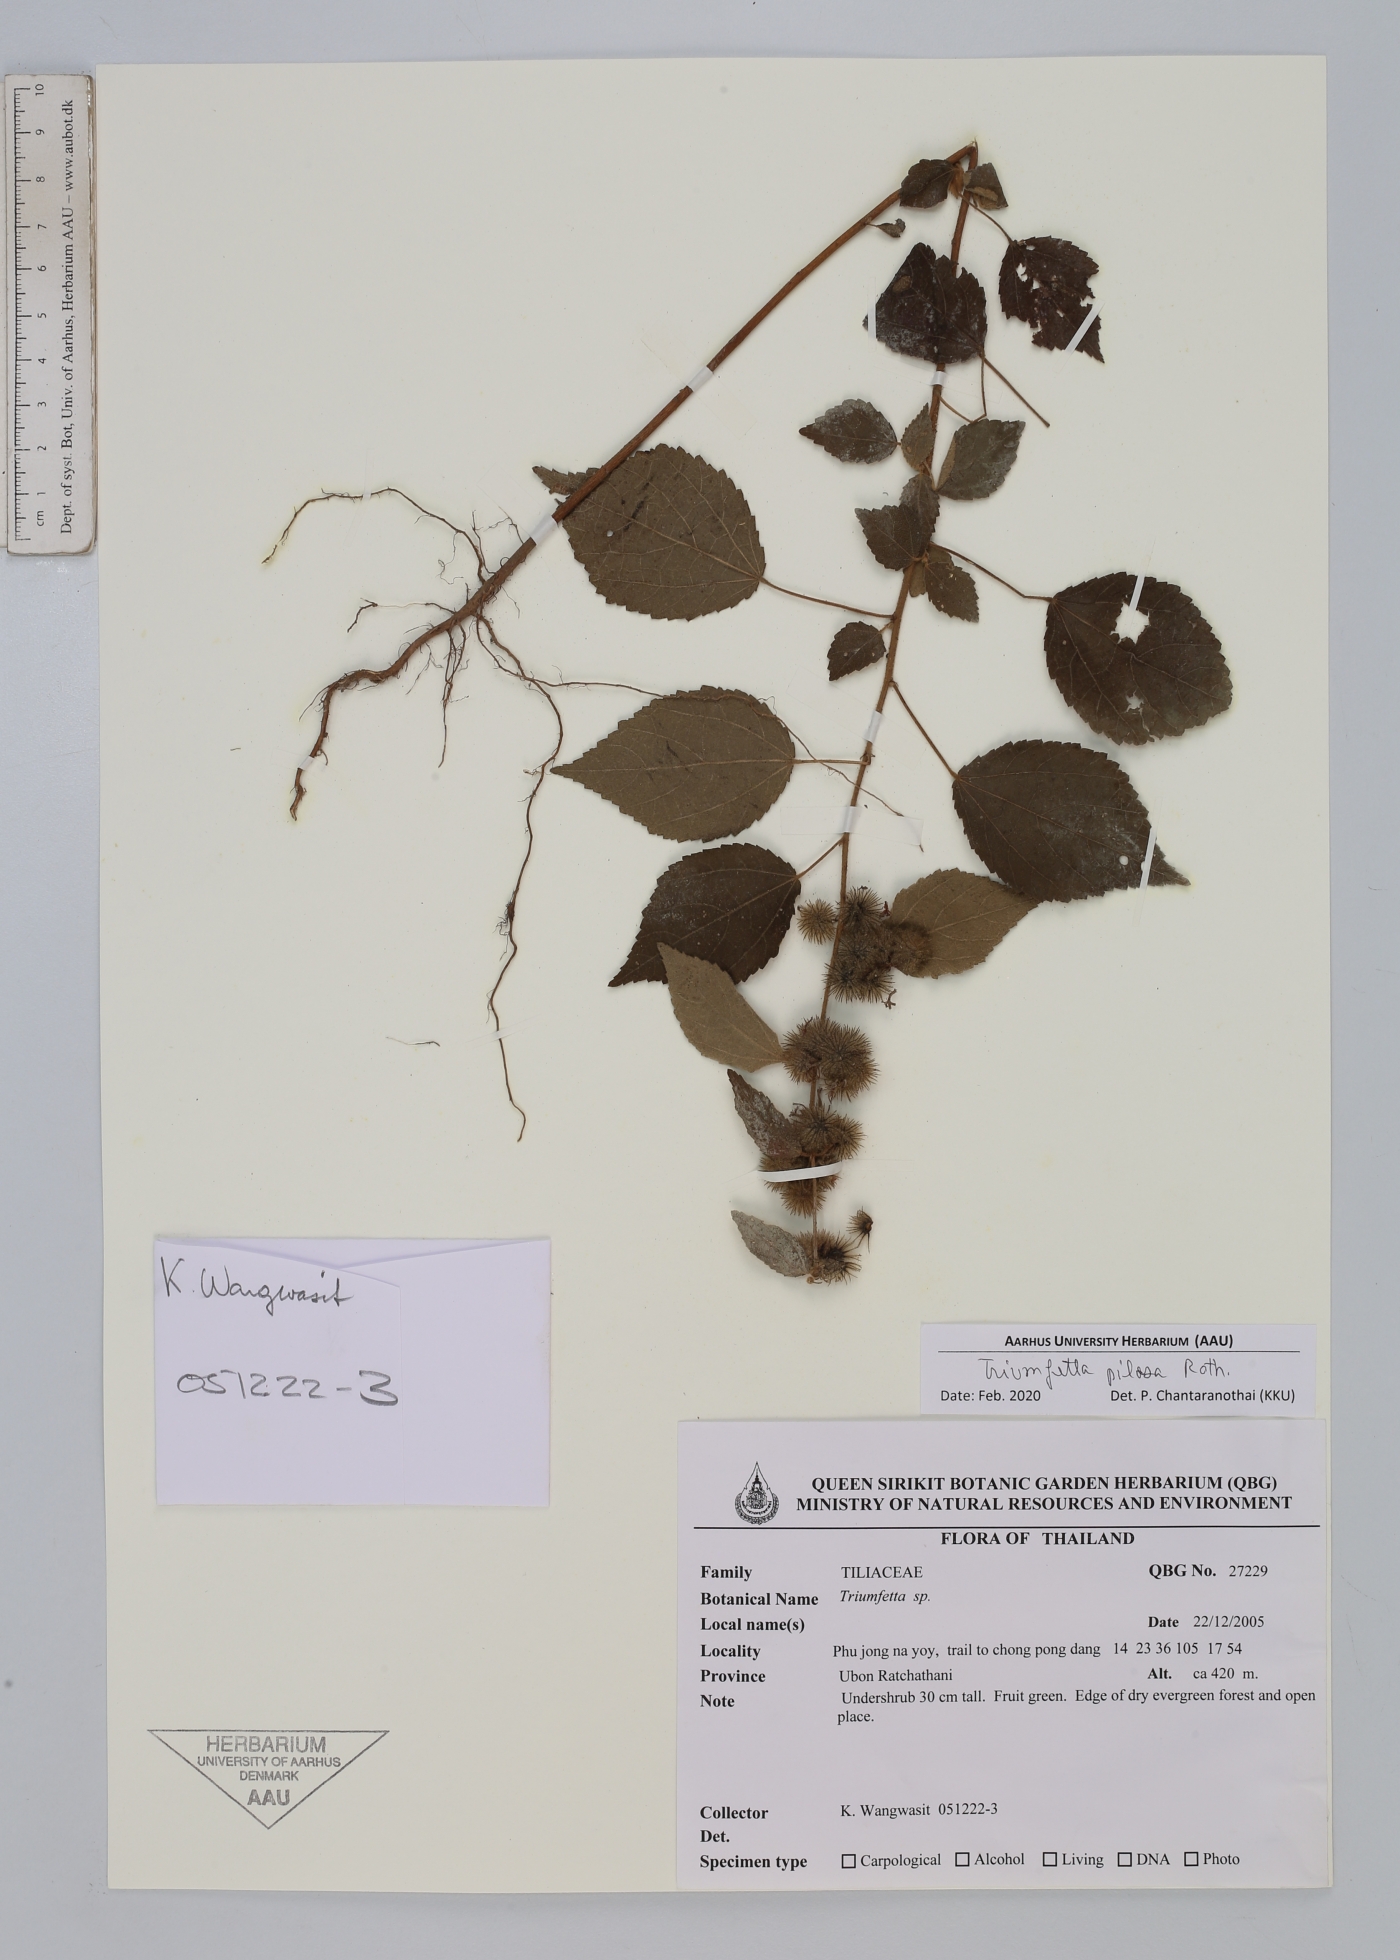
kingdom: Plantae
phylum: Tracheophyta
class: Magnoliopsida
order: Malvales
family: Malvaceae
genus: Triumfetta
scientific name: Triumfetta pilosa
